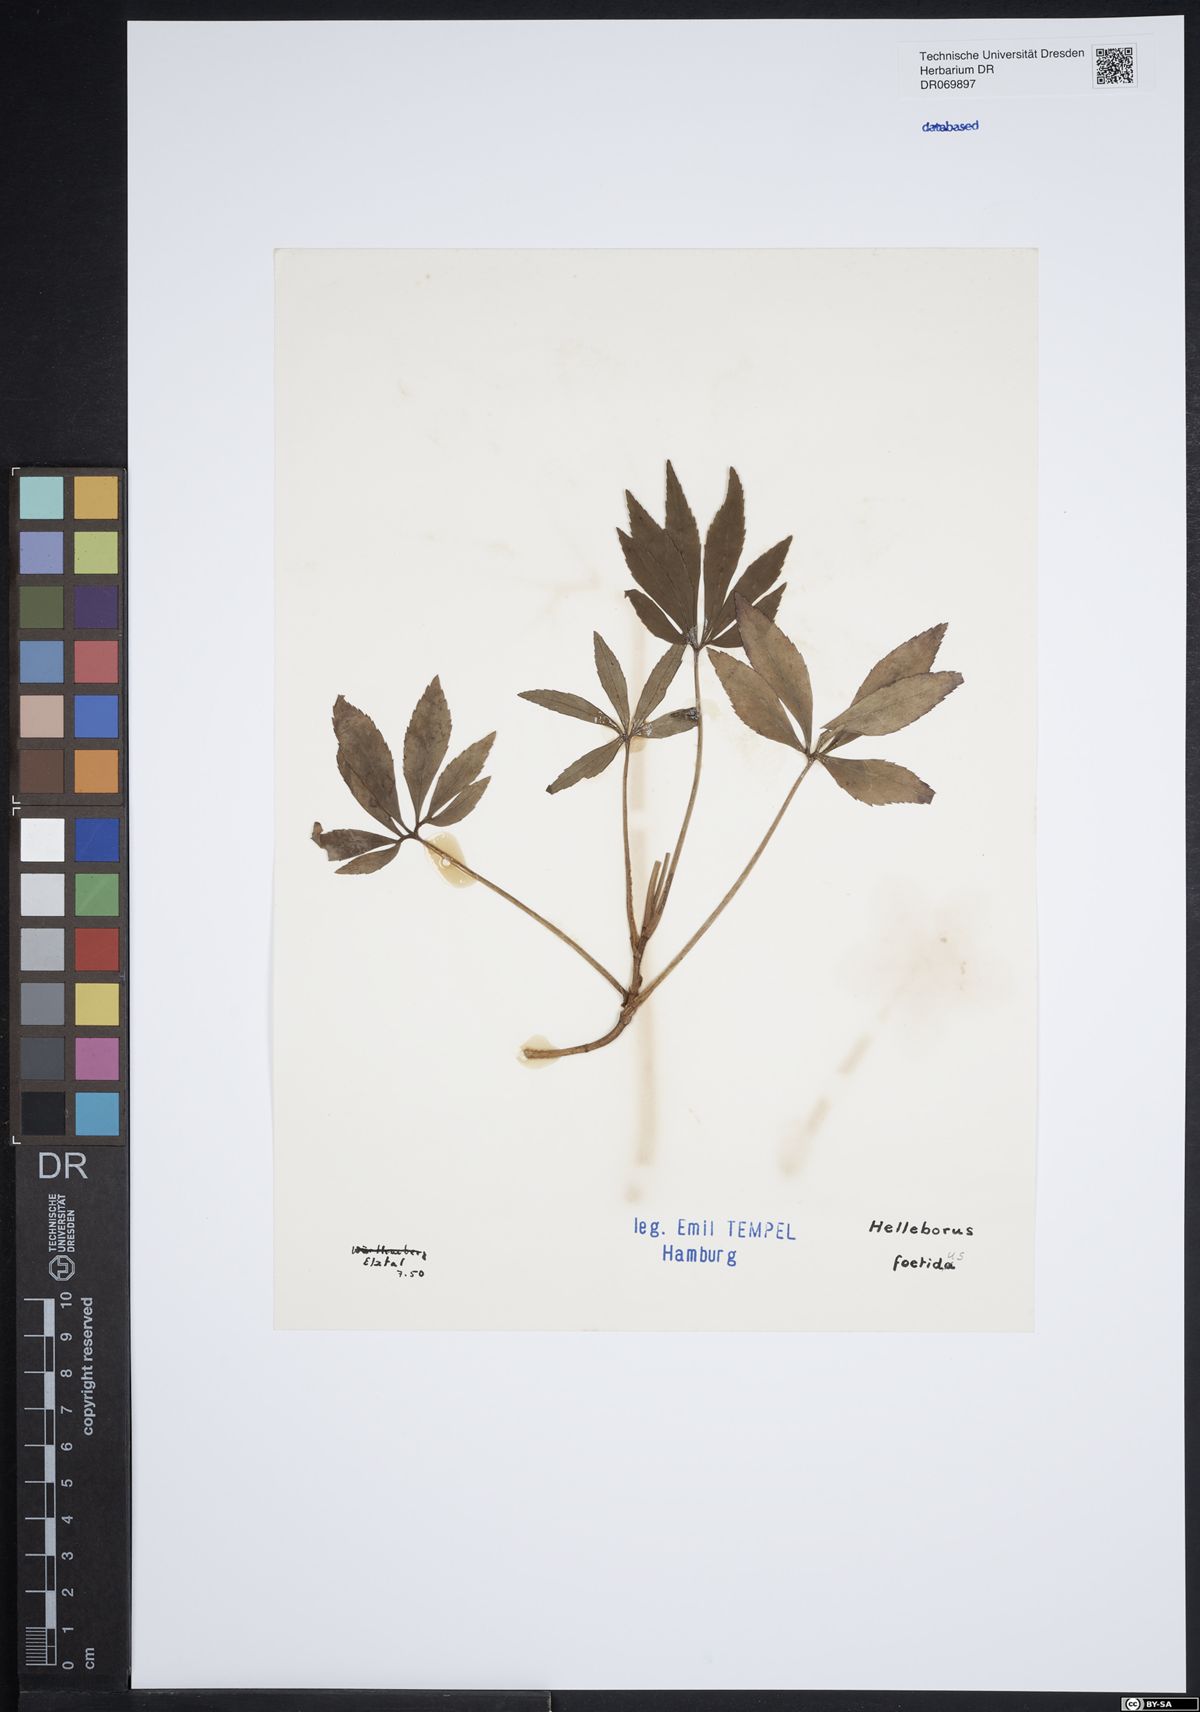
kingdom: Plantae
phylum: Tracheophyta
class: Magnoliopsida
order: Ranunculales
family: Ranunculaceae
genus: Helleborus
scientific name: Helleborus foetidus
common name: Stinking hellebore
